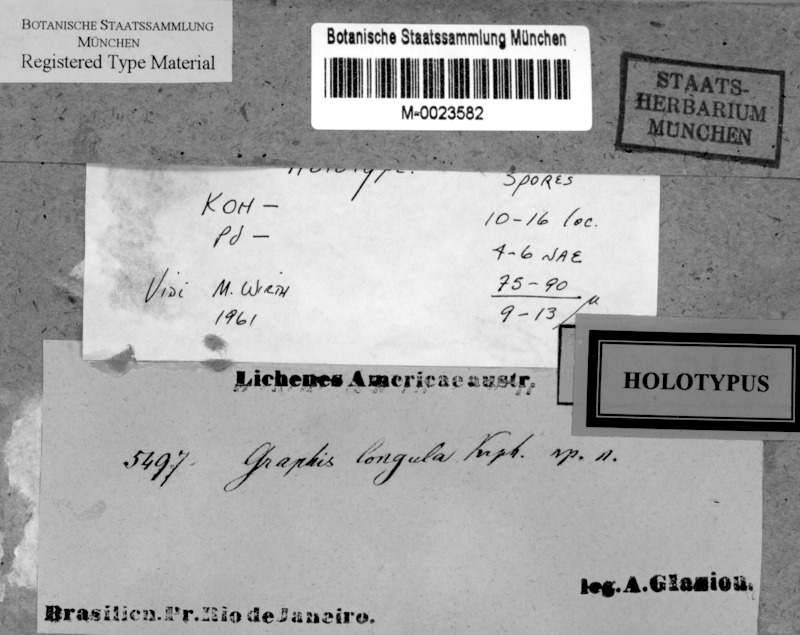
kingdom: Fungi
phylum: Ascomycota
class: Lecanoromycetes
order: Ostropales
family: Graphidaceae
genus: Allographa
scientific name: Allographa longula
